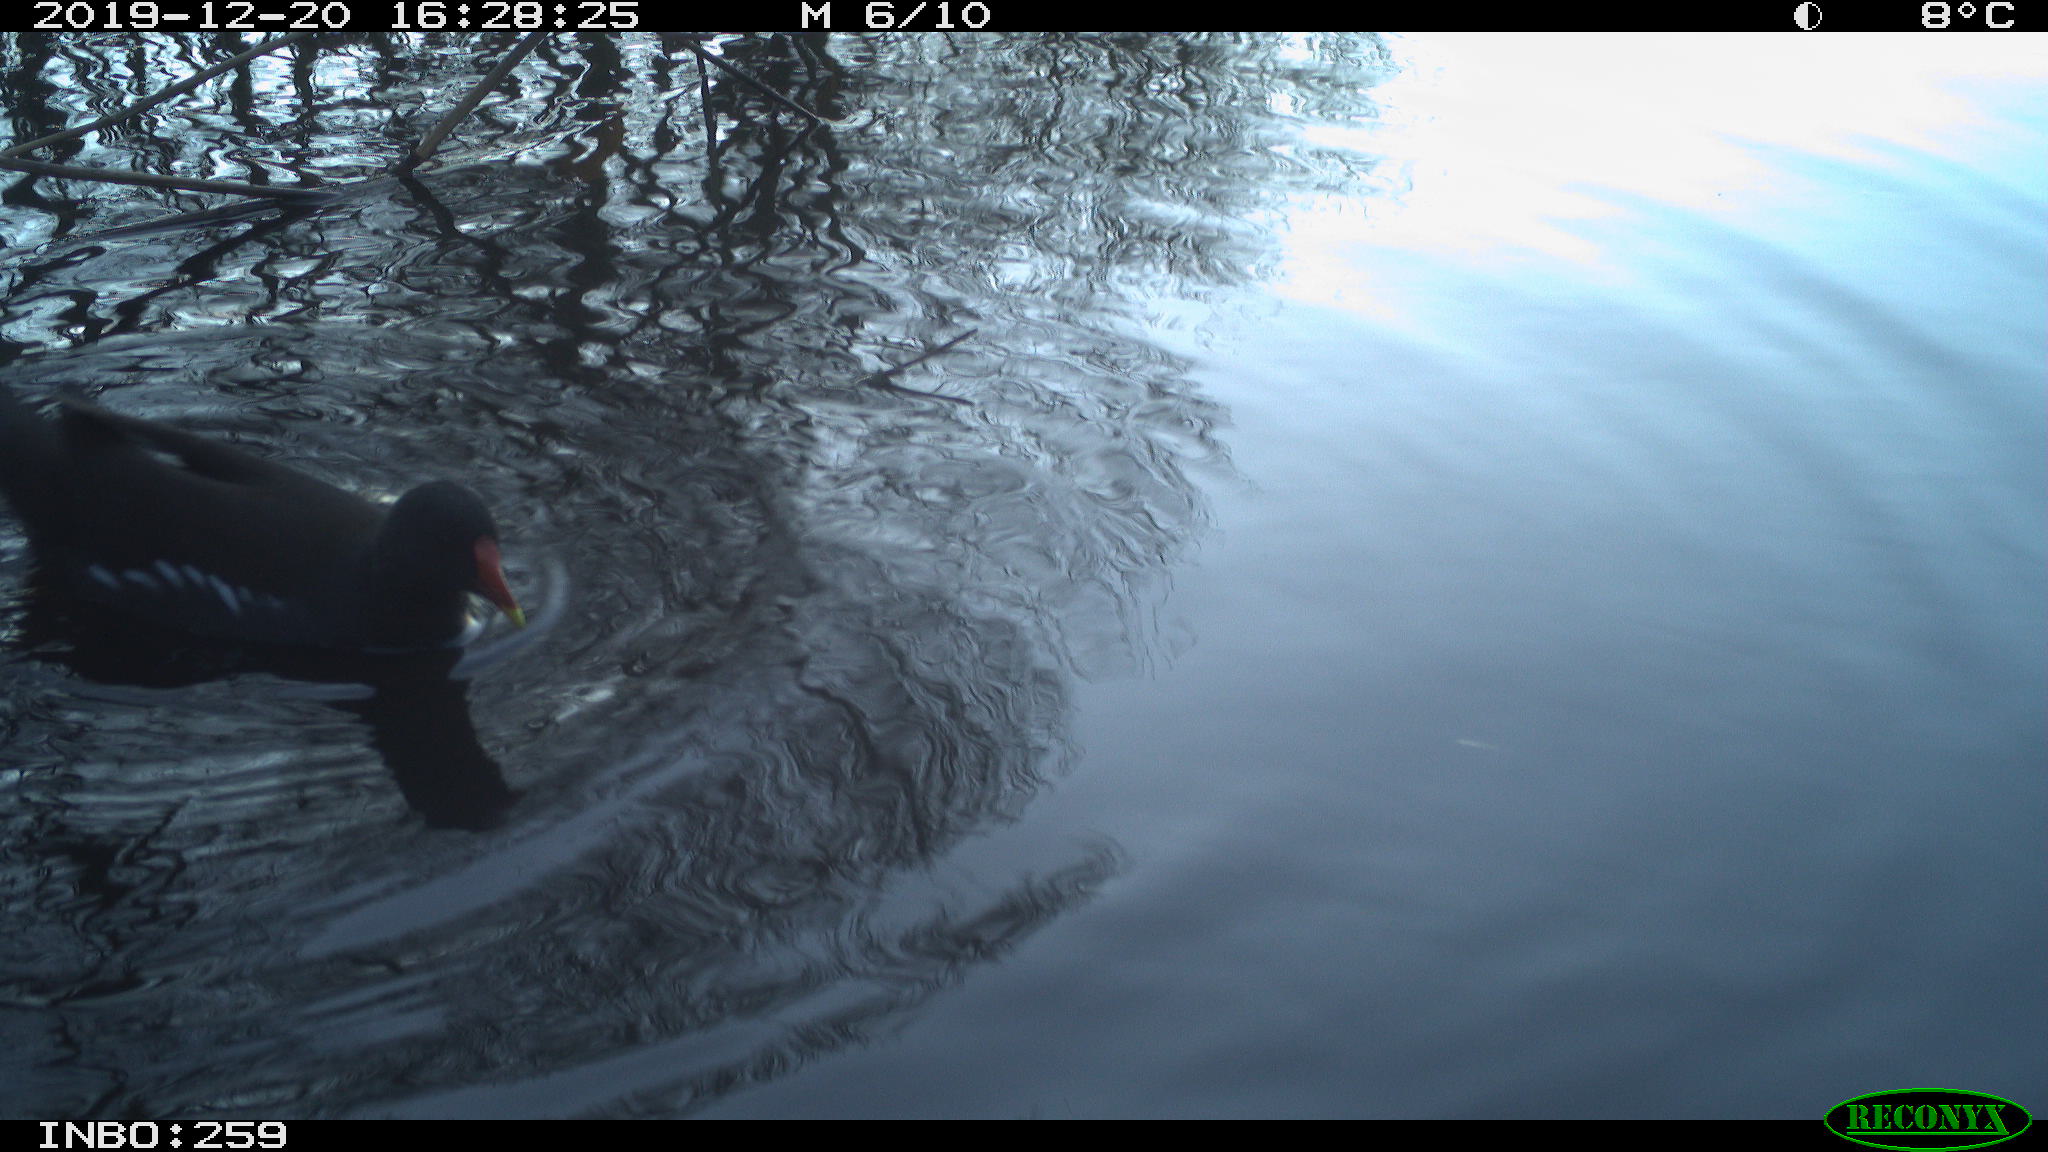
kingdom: Animalia
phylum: Chordata
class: Aves
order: Gruiformes
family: Rallidae
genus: Gallinula
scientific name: Gallinula chloropus
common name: Common moorhen
